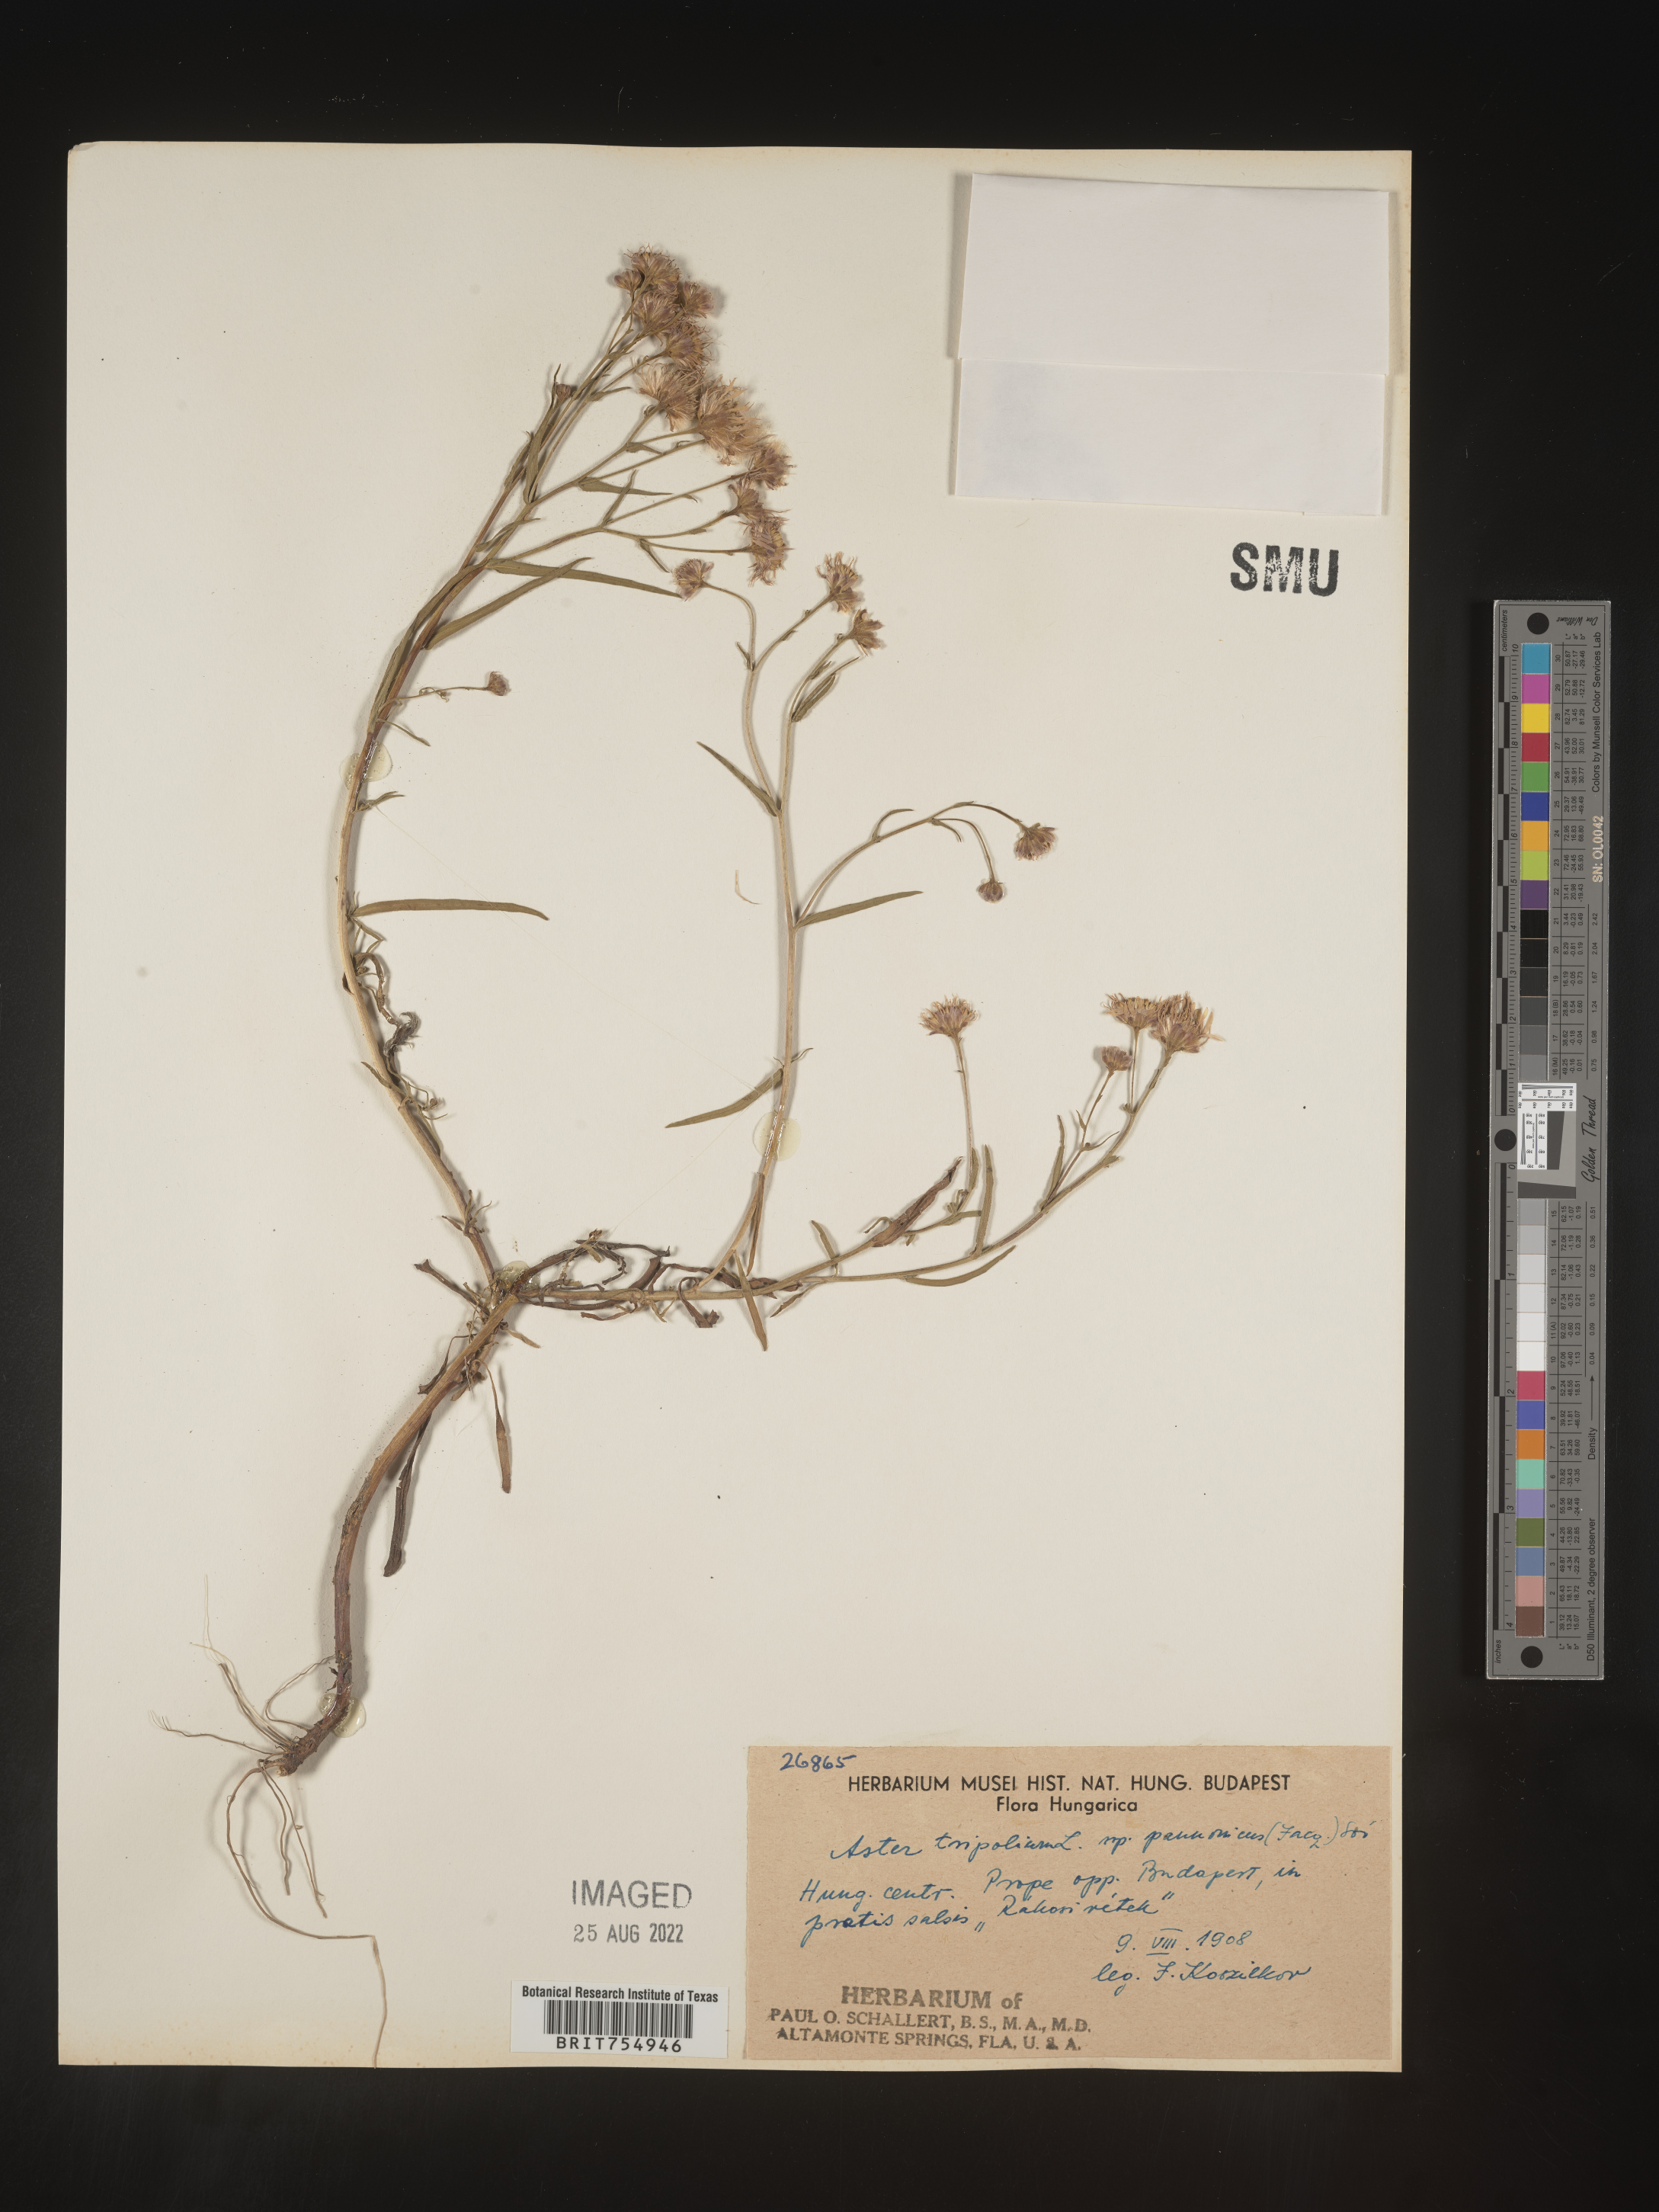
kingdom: Plantae
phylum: Tracheophyta
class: Magnoliopsida
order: Asterales
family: Asteraceae
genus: Symphyotrichum
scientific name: Symphyotrichum
